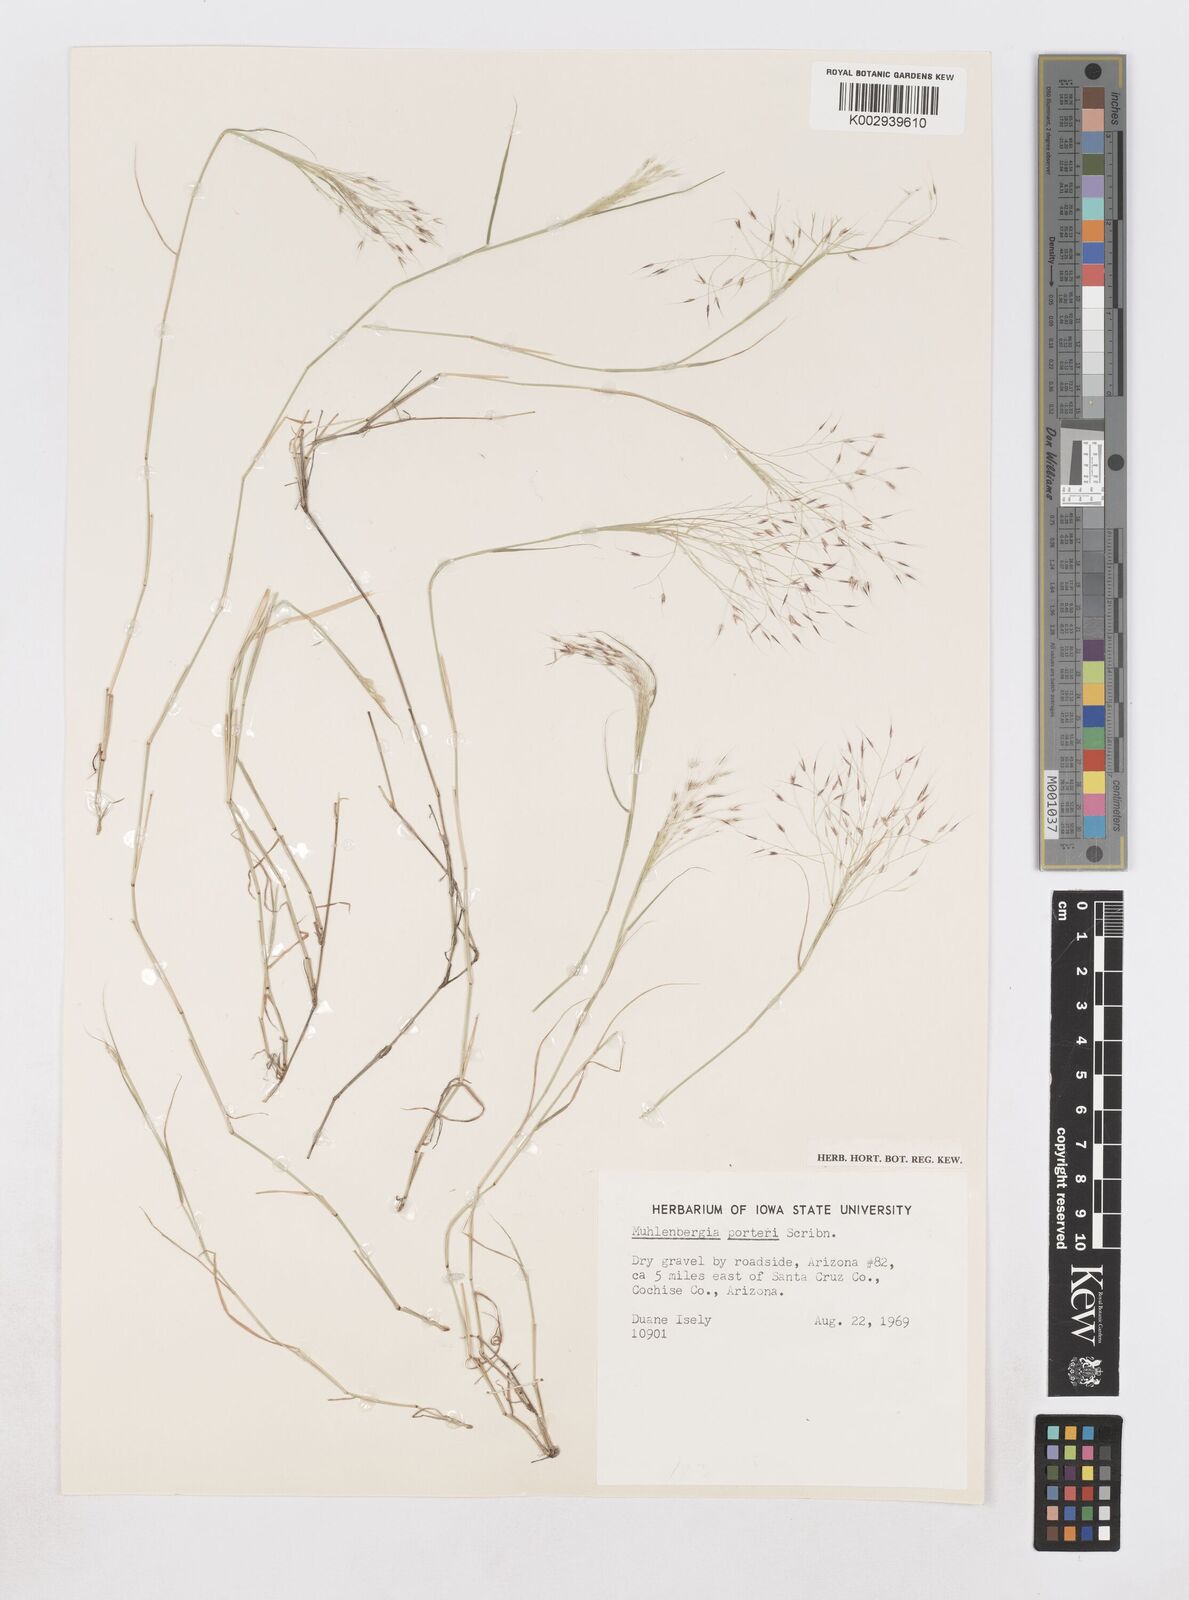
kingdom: Plantae
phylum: Tracheophyta
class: Liliopsida
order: Poales
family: Poaceae
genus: Muhlenbergia
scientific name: Muhlenbergia porteri
